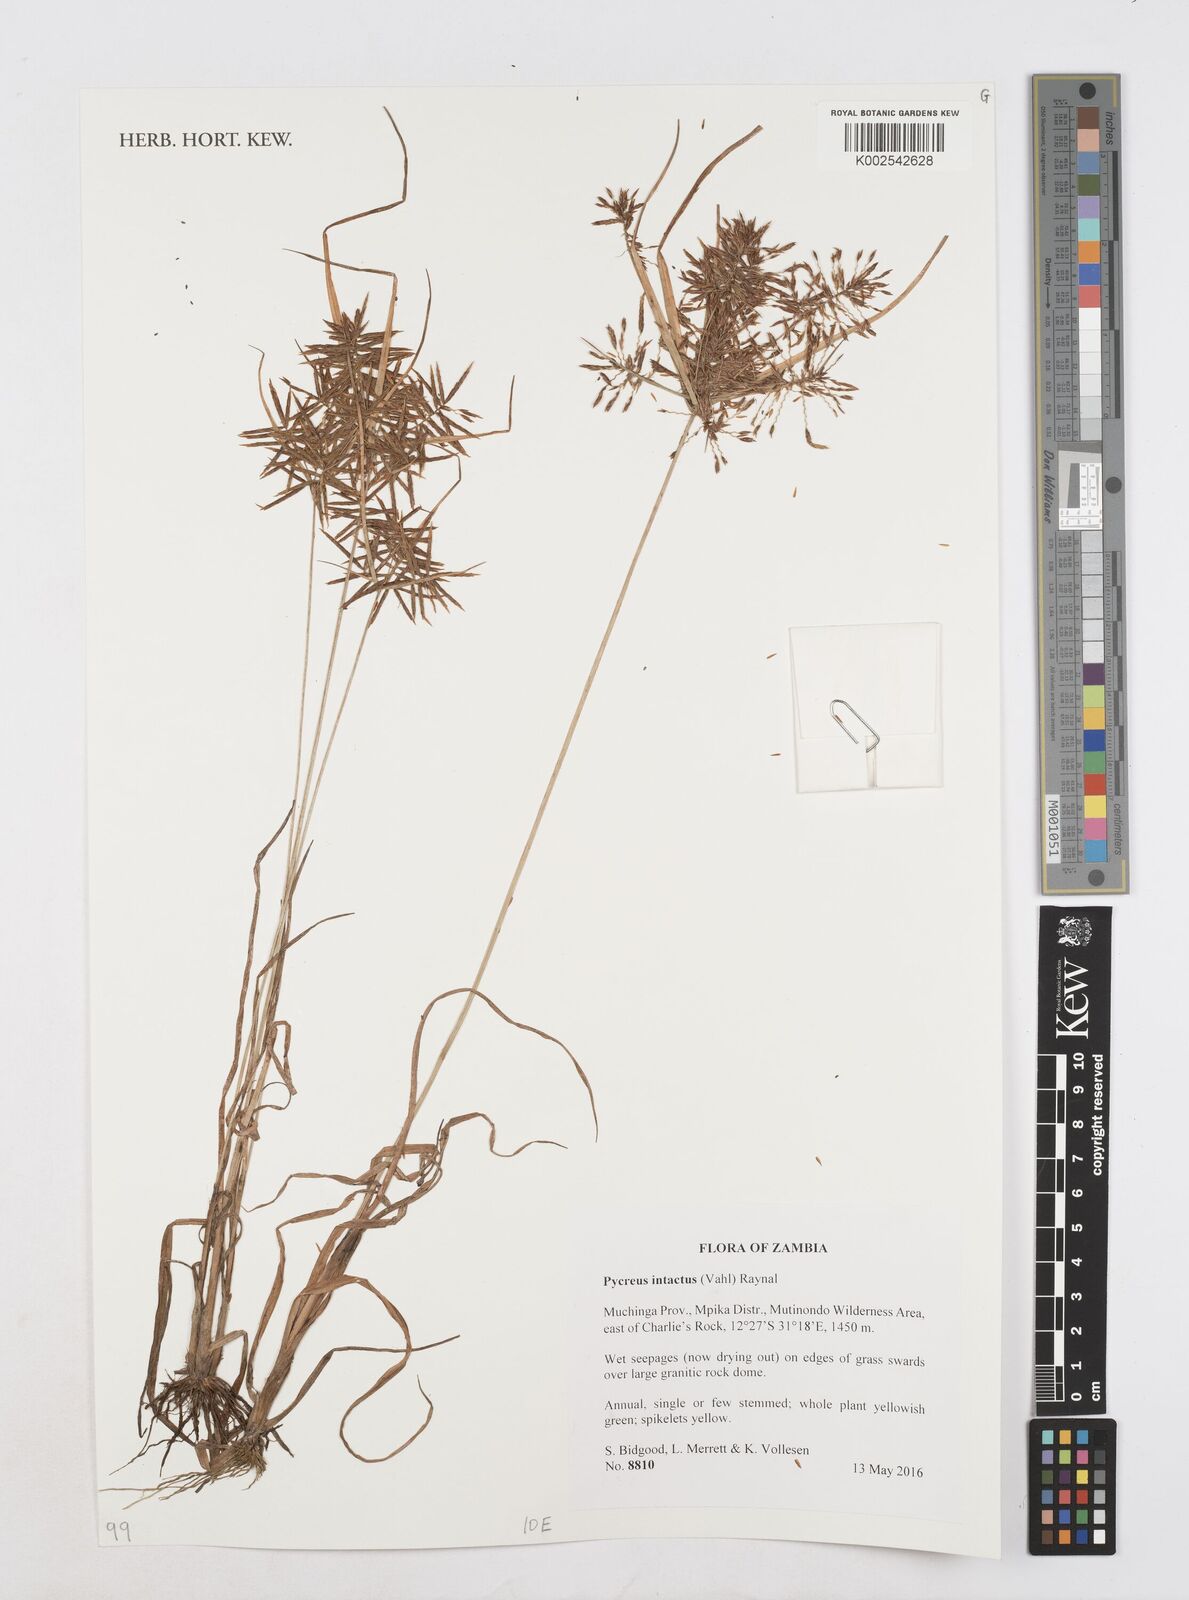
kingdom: Plantae
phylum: Tracheophyta
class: Liliopsida
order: Poales
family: Cyperaceae
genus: Cyperus
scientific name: Cyperus intactus
